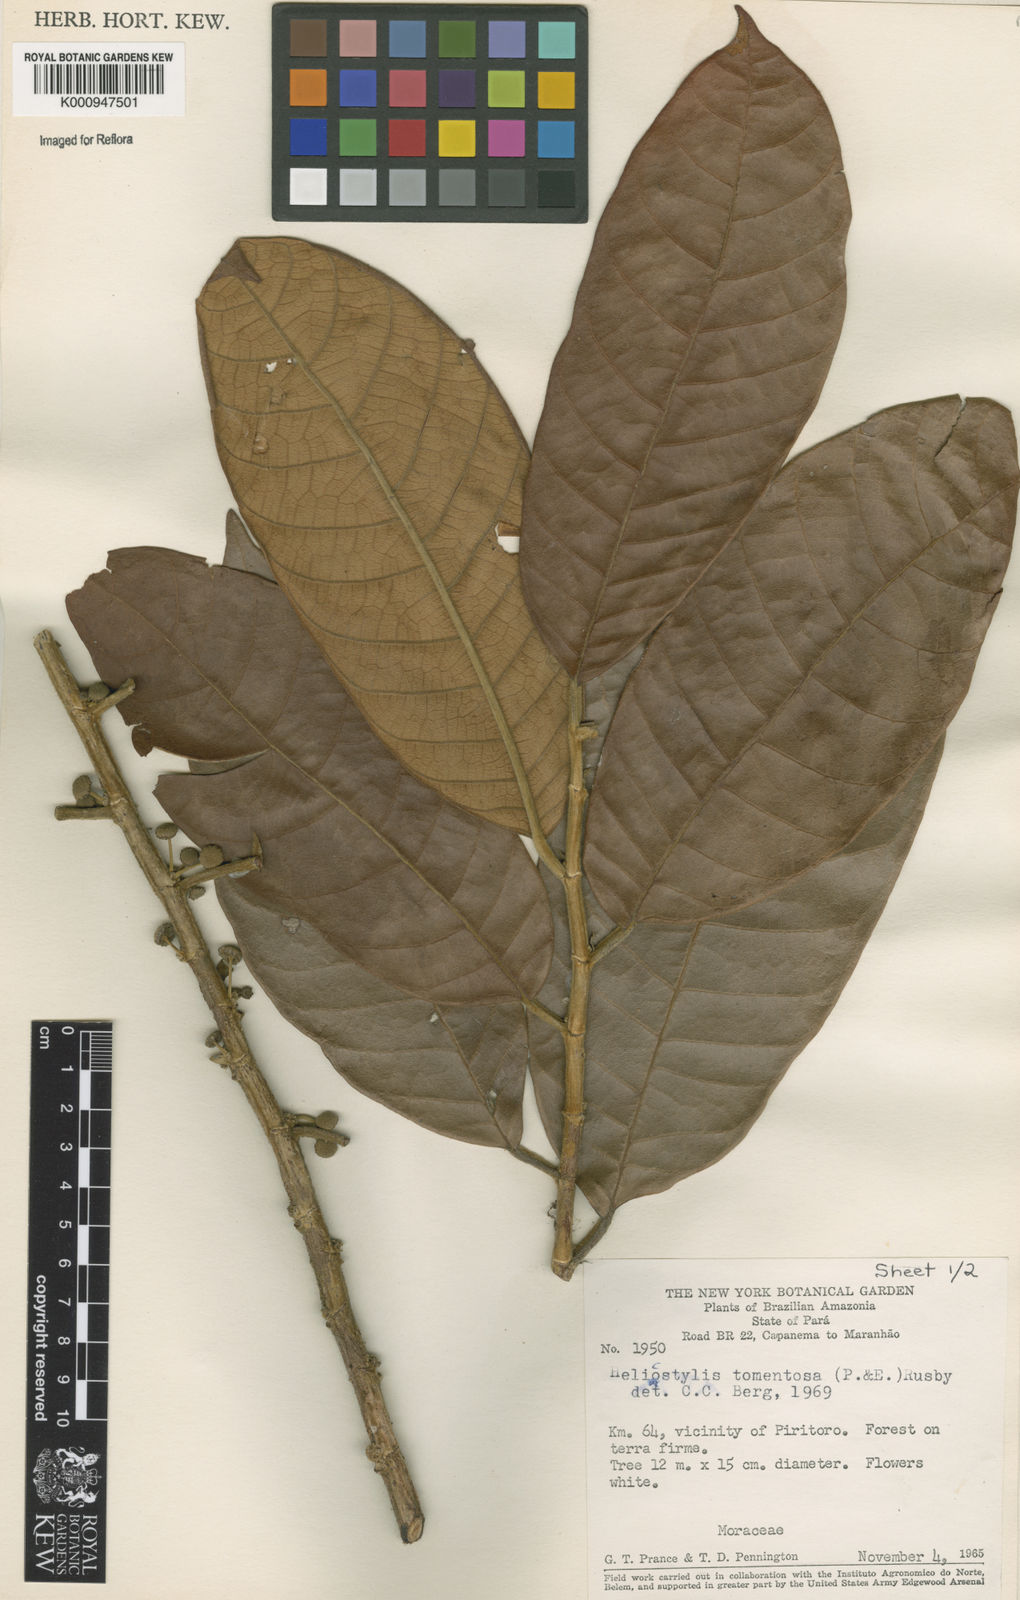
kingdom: Plantae
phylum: Tracheophyta
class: Magnoliopsida
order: Rosales
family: Moraceae
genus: Helicostylis
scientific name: Helicostylis
